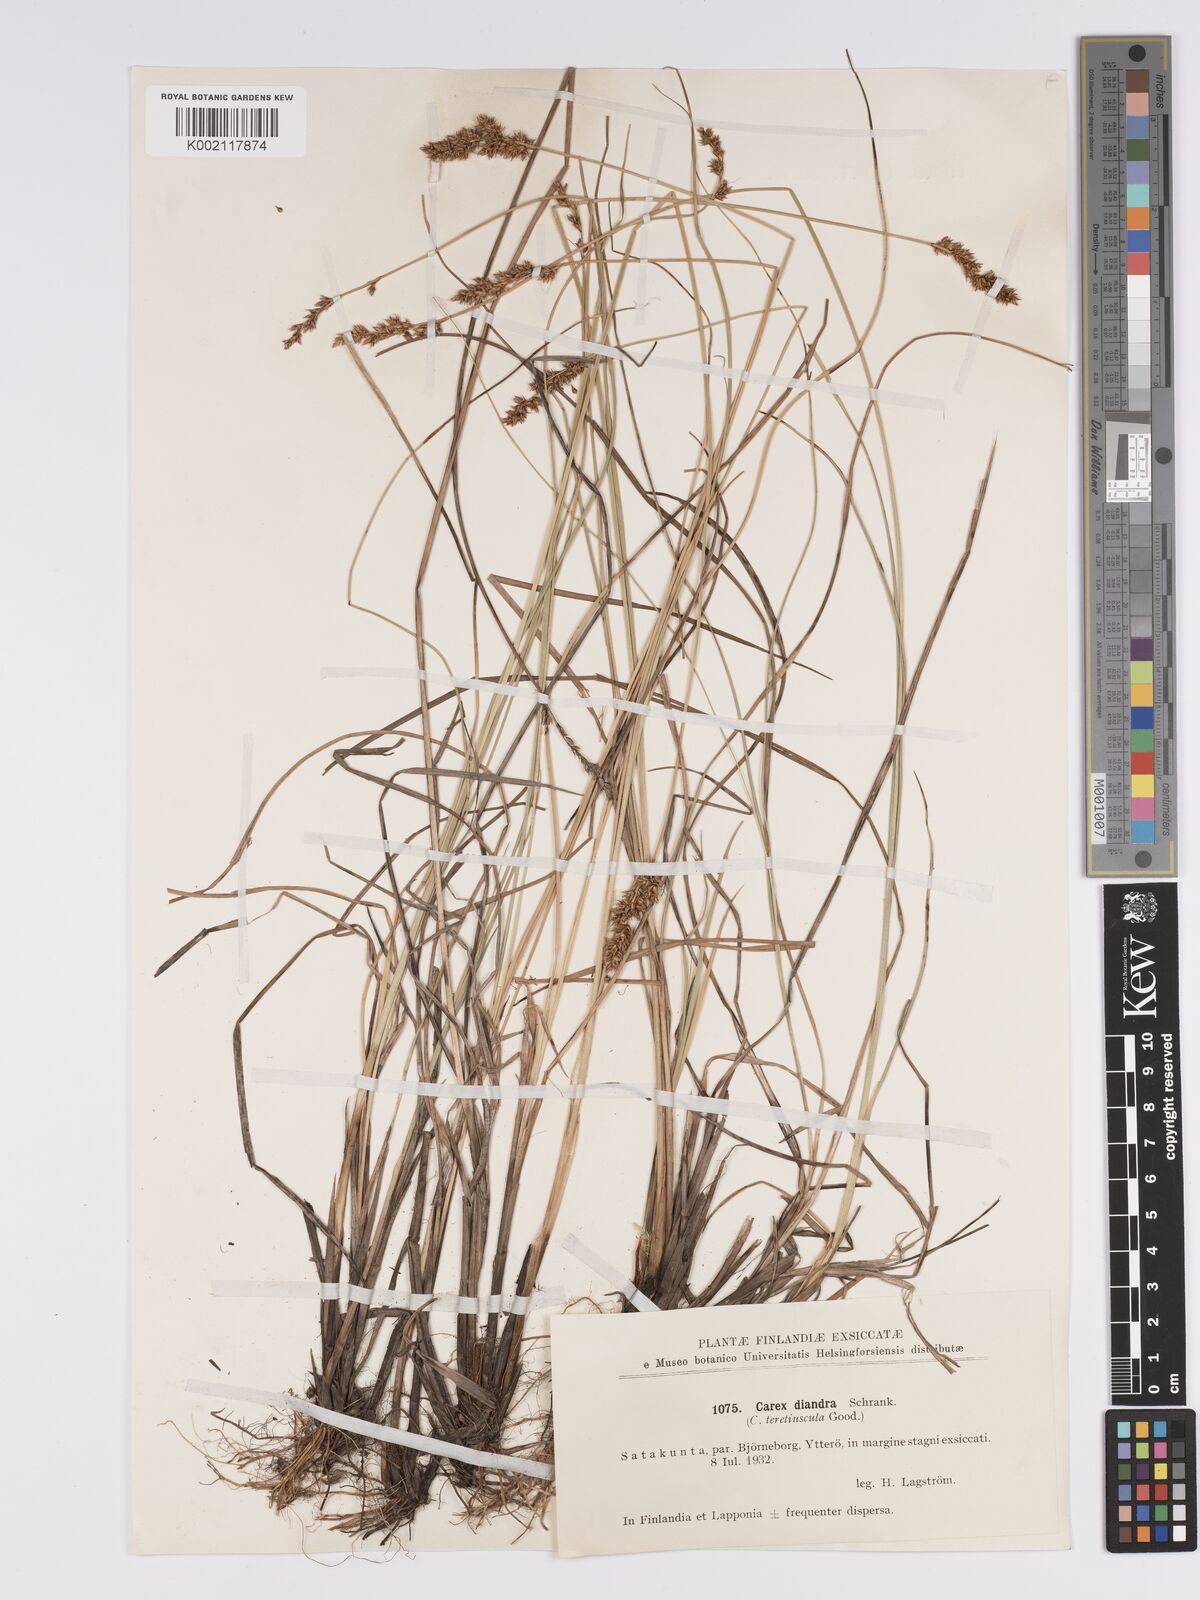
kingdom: Plantae
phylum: Tracheophyta
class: Liliopsida
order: Poales
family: Cyperaceae
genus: Carex
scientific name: Carex diandra
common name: Lesser tussock-sedge
